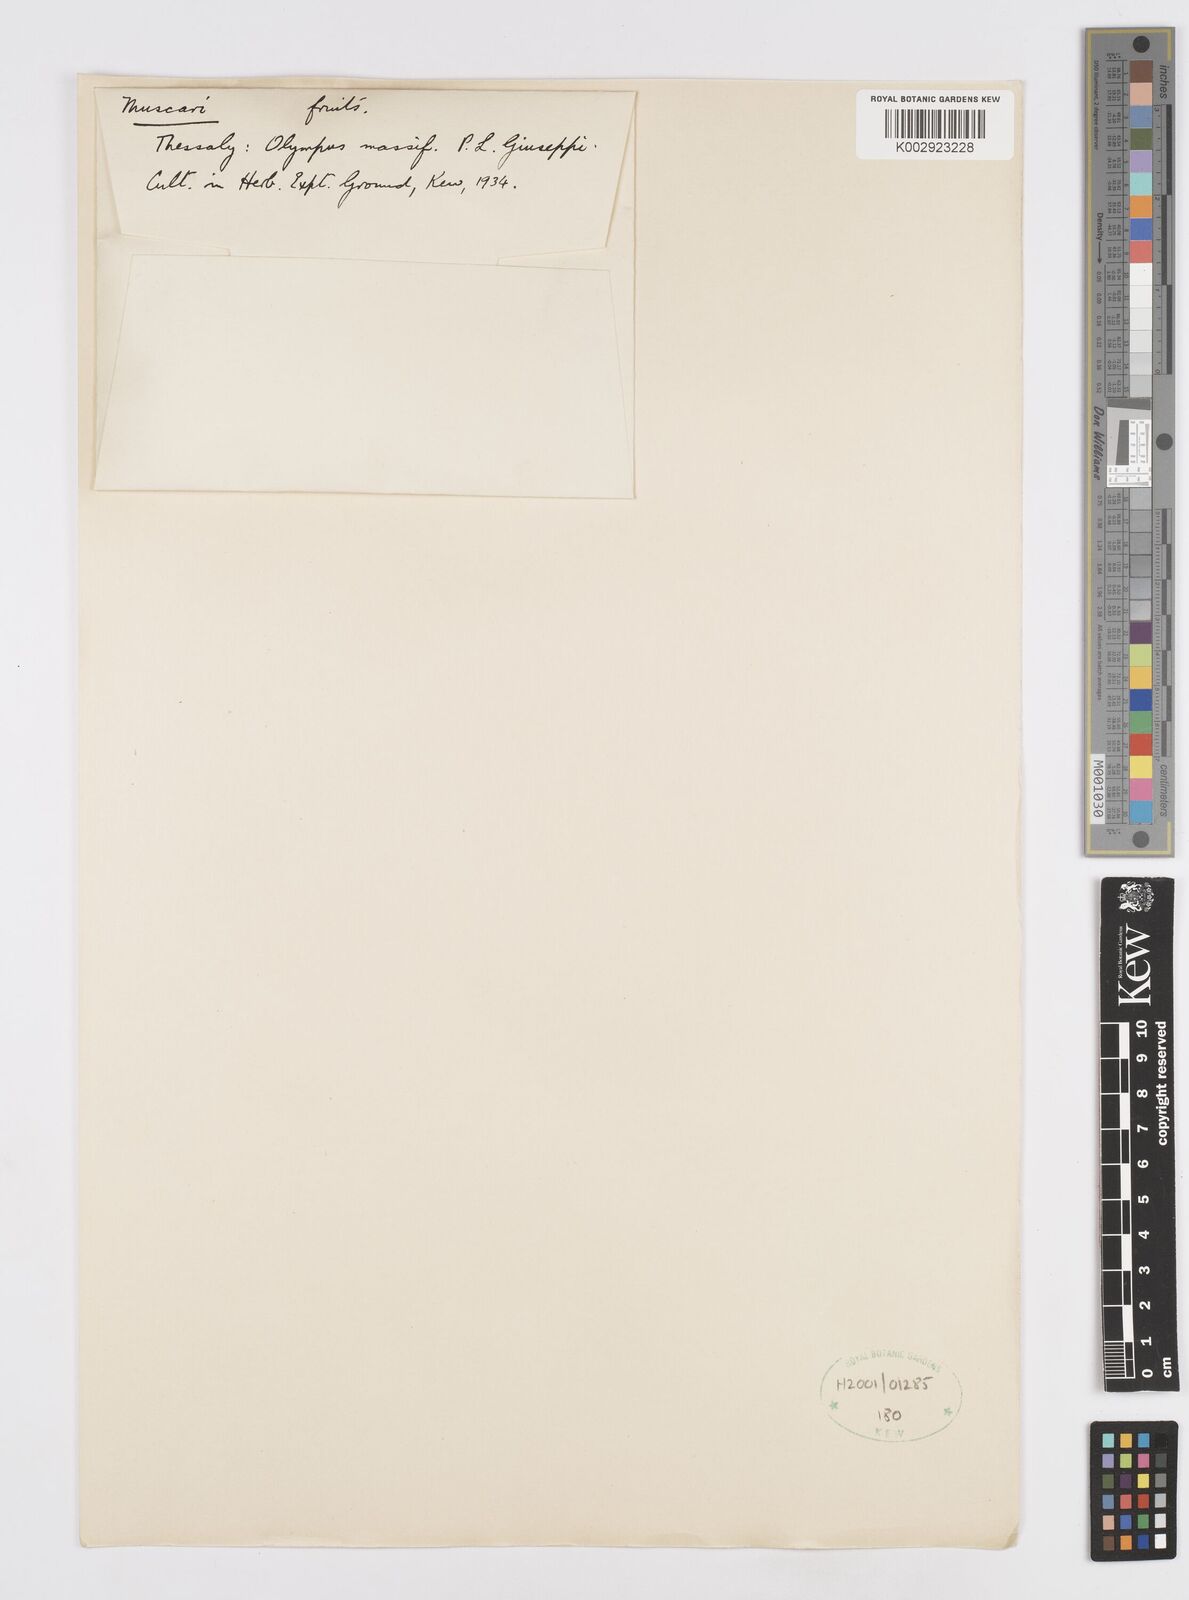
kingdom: Plantae
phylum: Tracheophyta
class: Liliopsida
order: Asparagales
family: Asparagaceae
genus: Muscari
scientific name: Muscari
